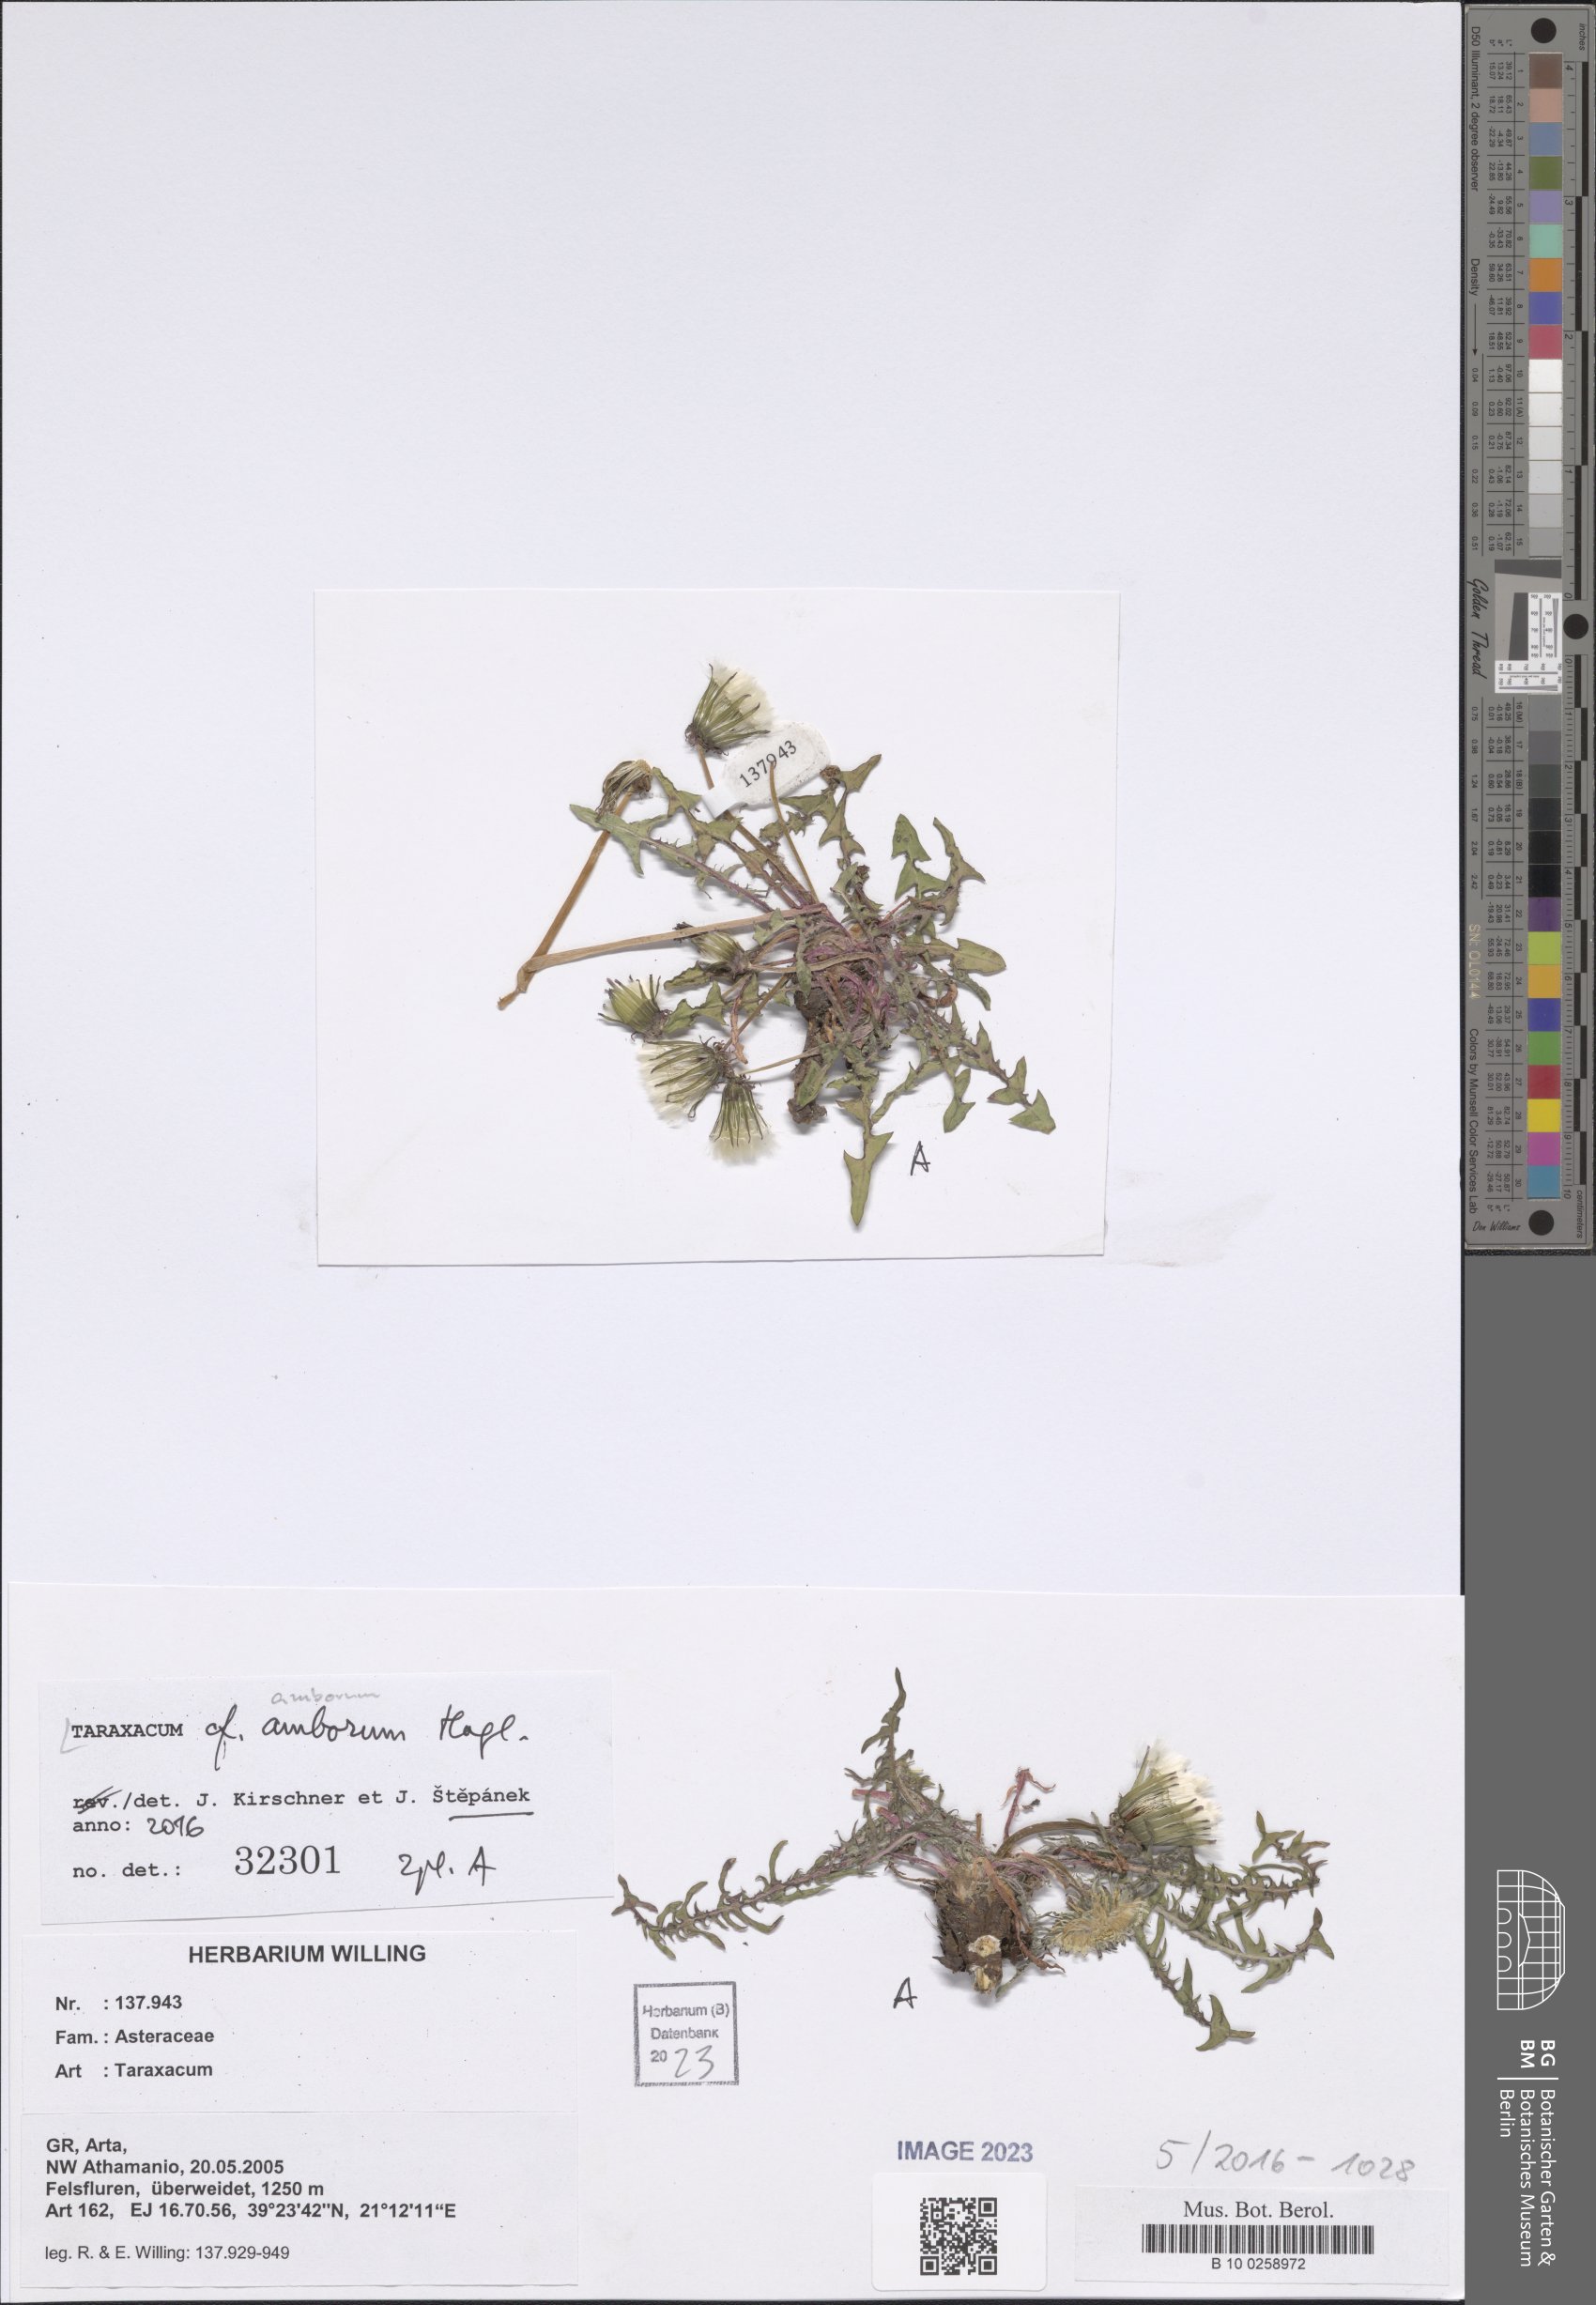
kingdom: Plantae
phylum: Tracheophyta
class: Magnoliopsida
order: Asterales
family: Asteraceae
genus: Taraxacum
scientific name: Taraxacum amborum
